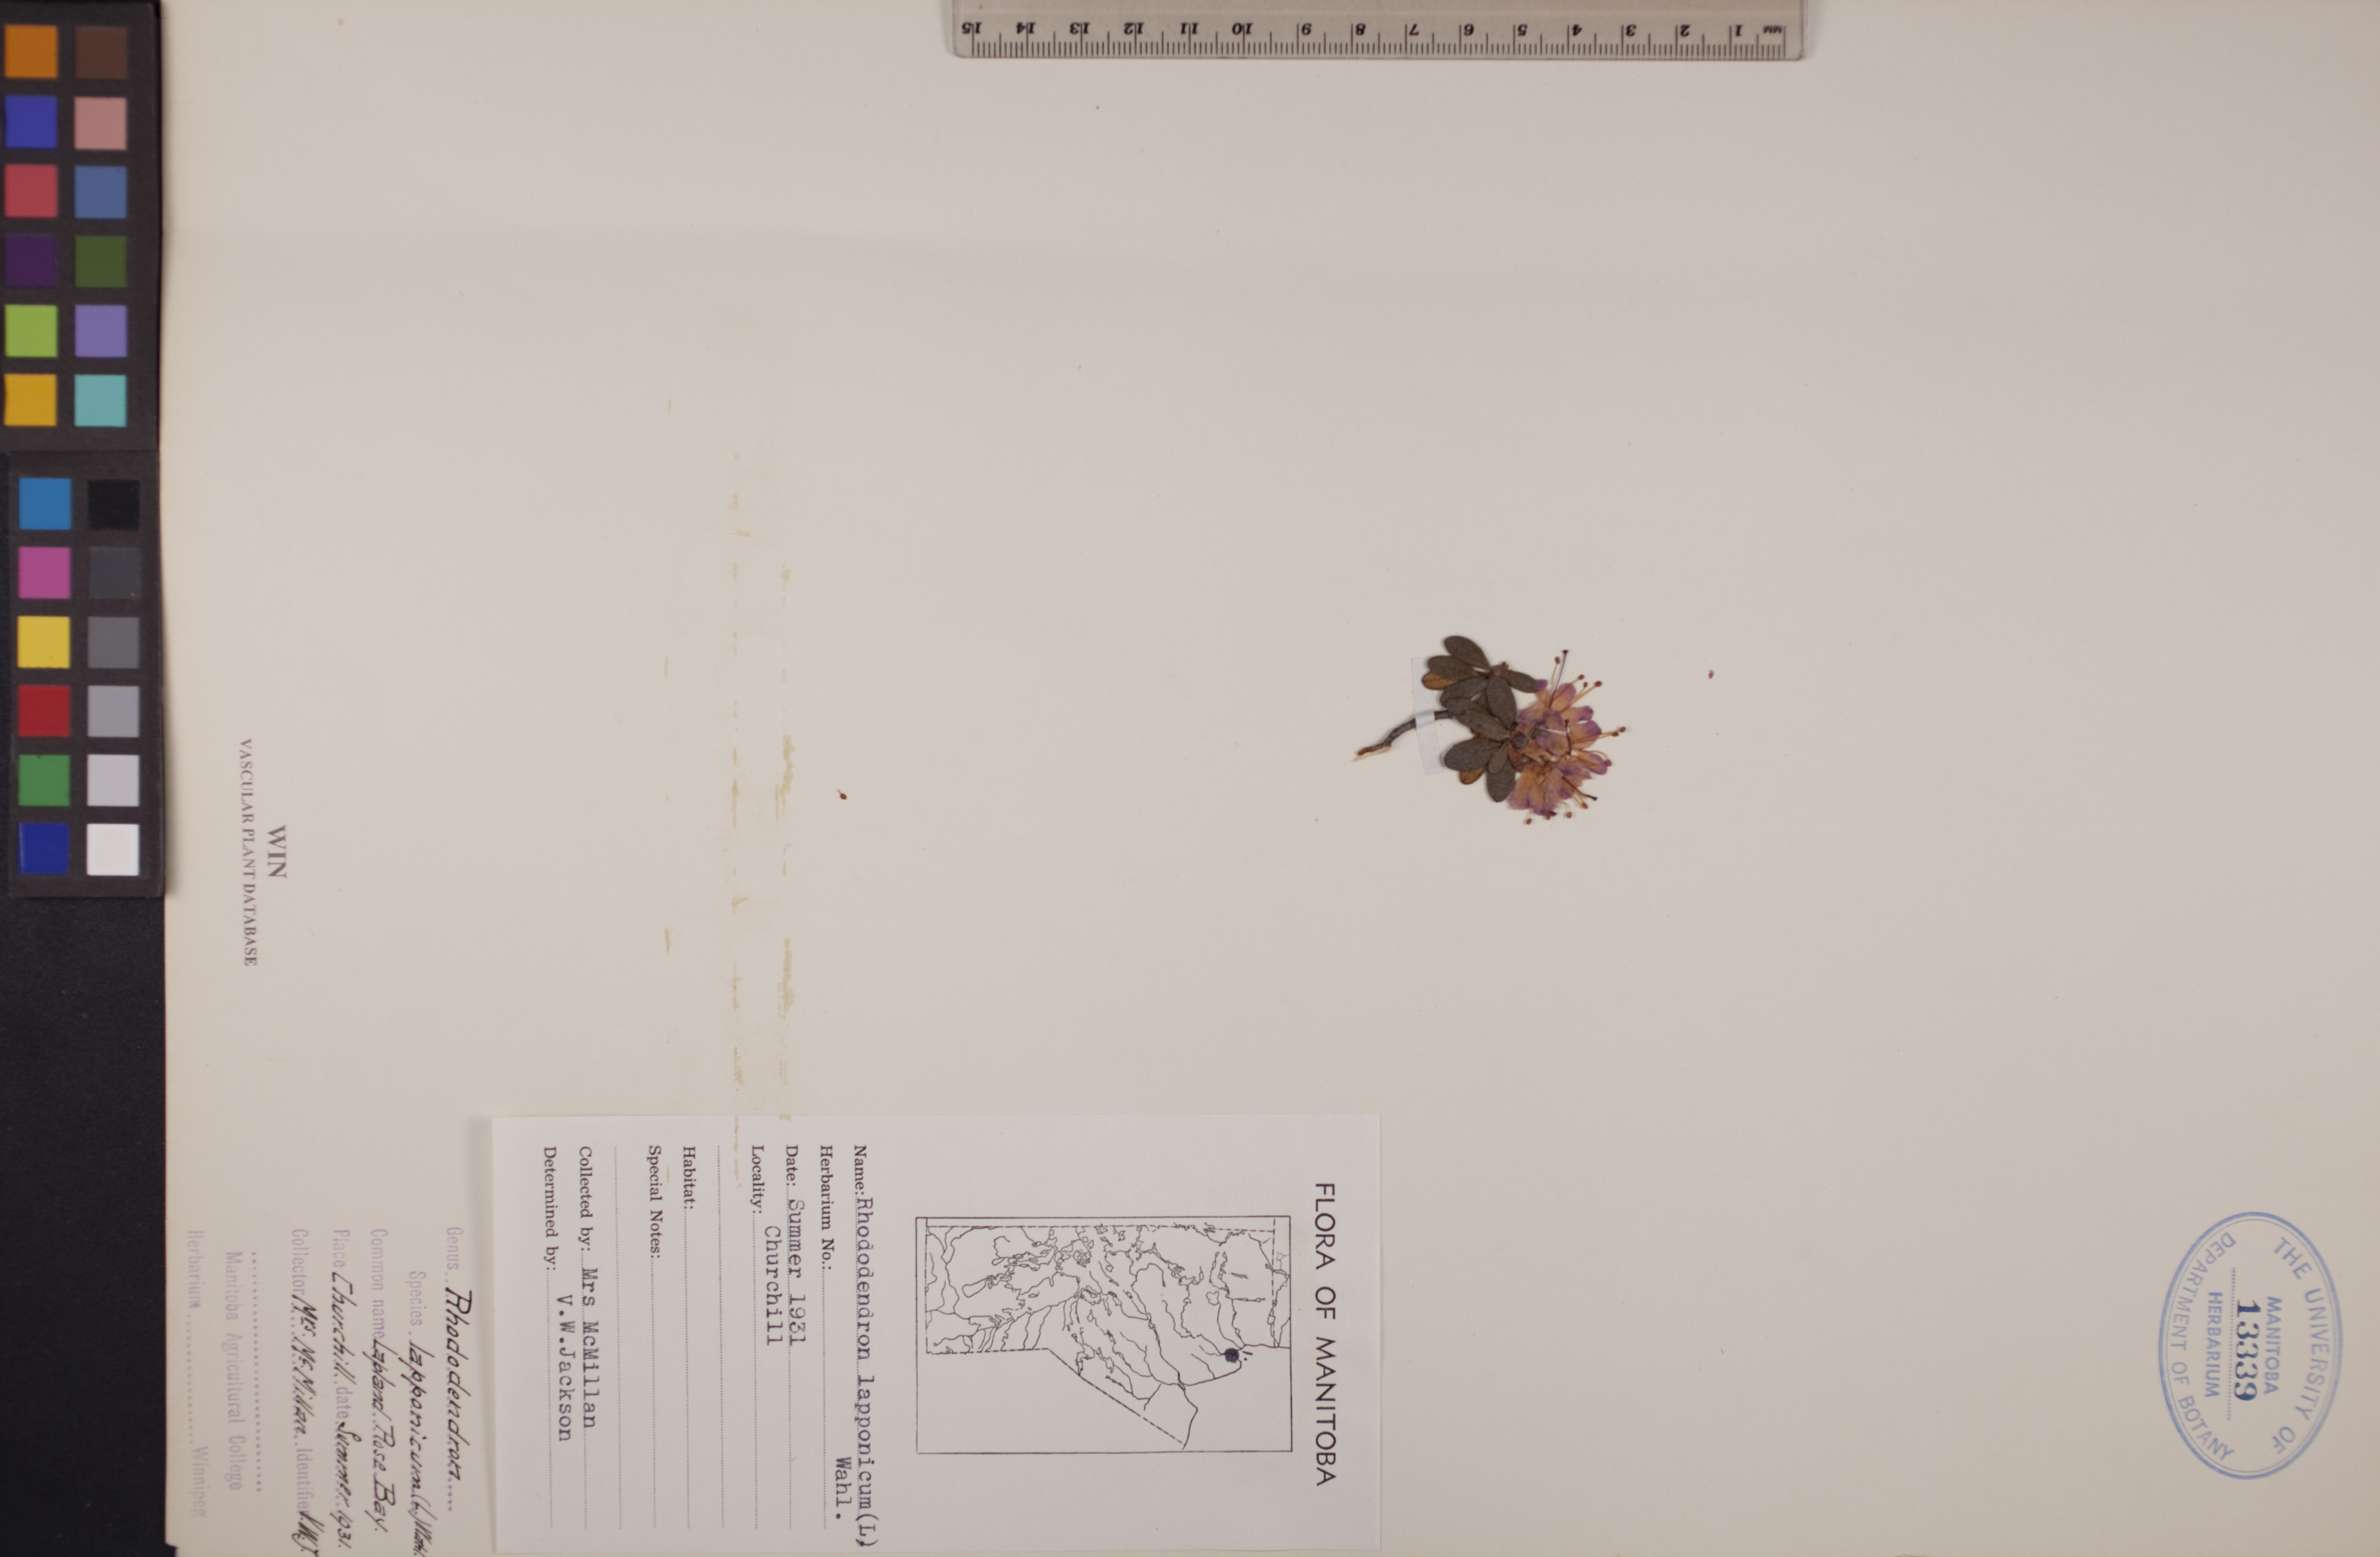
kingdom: Plantae
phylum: Tracheophyta
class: Magnoliopsida
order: Ericales
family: Ericaceae
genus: Rhododendron
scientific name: Rhododendron lapponicum
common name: Lapland rhododendron
